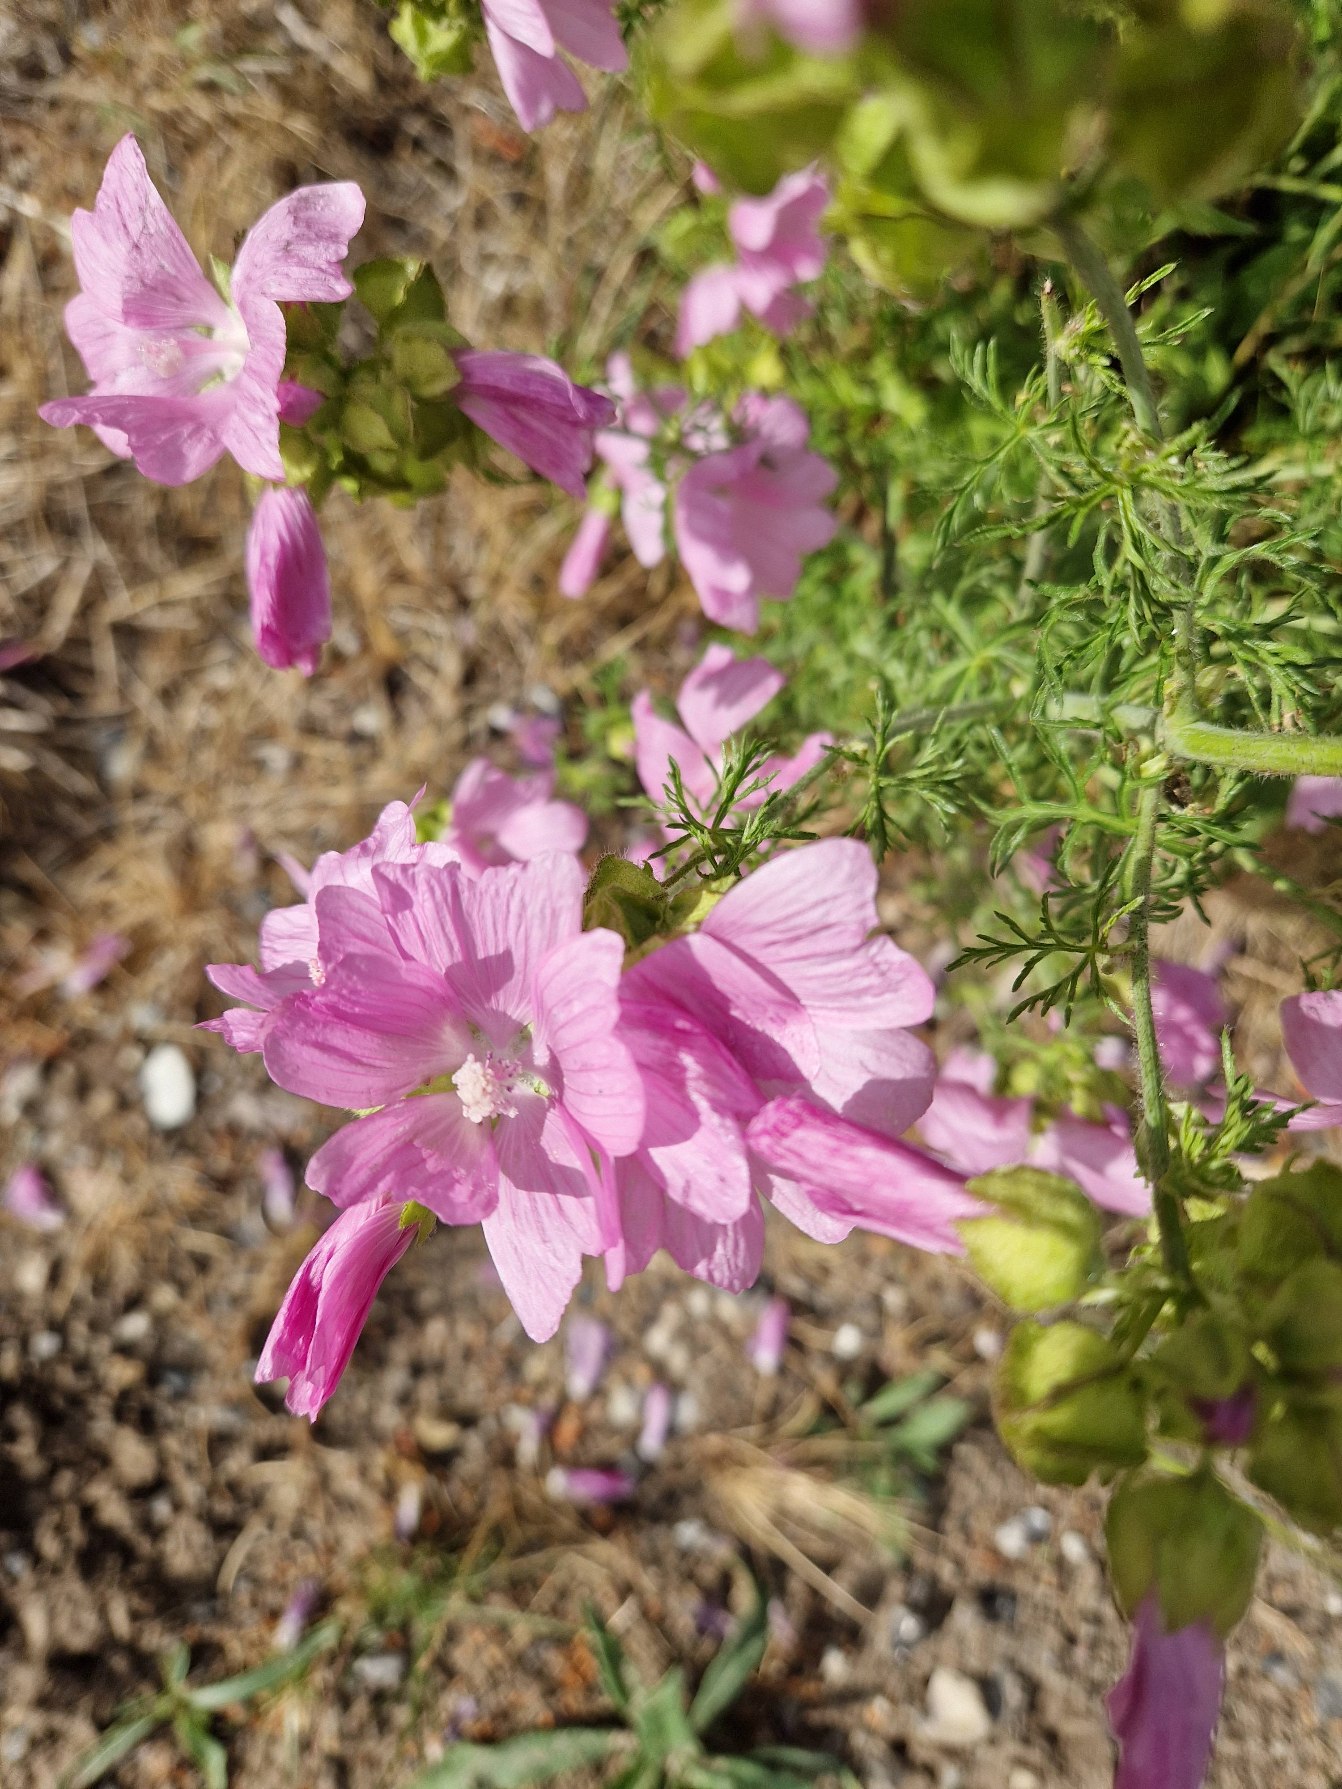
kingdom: Plantae
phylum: Tracheophyta
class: Magnoliopsida
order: Malvales
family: Malvaceae
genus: Malva
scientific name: Malva moschata
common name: Moskus-katost
